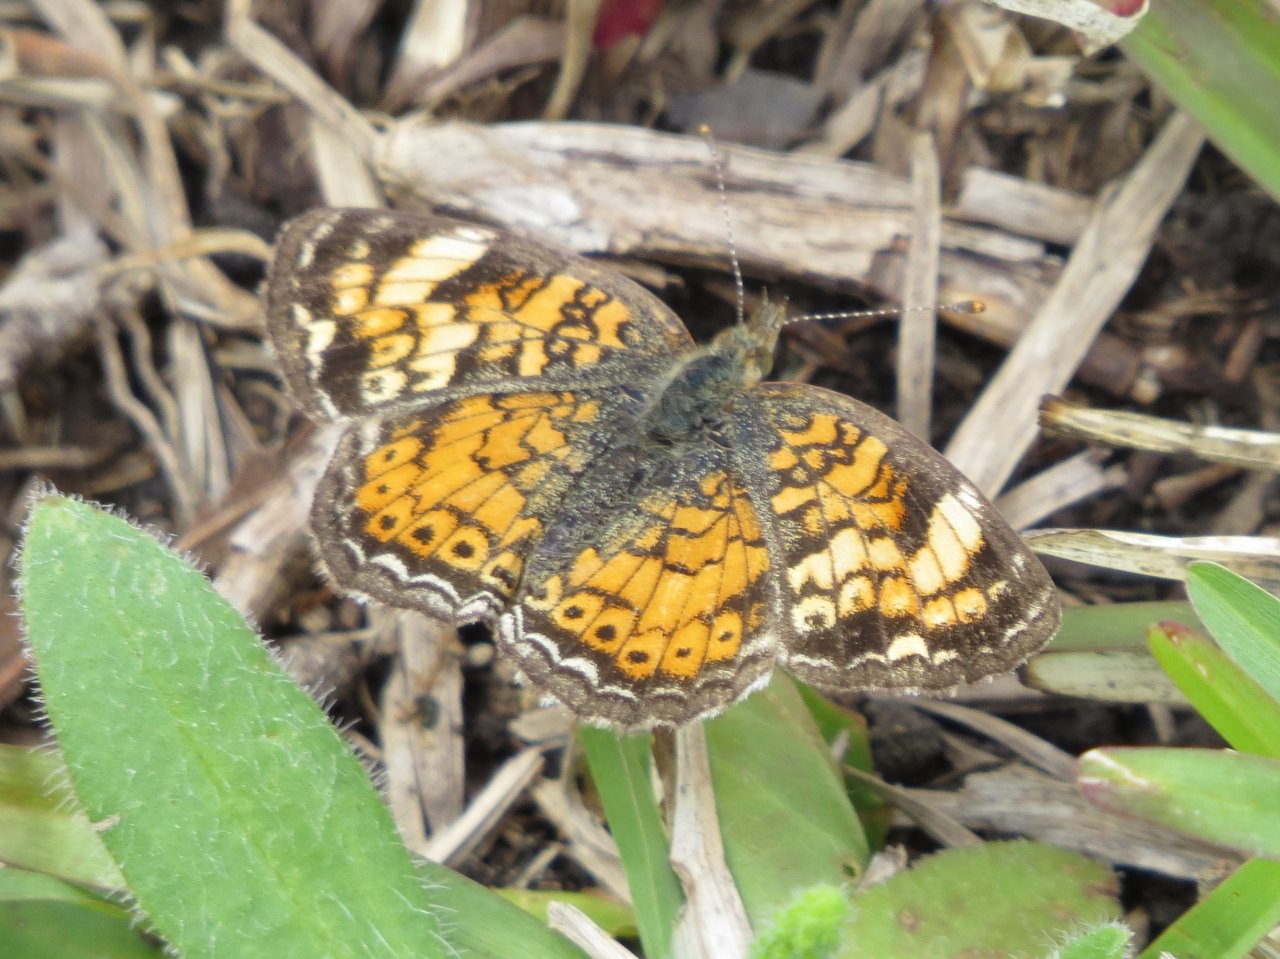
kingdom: Animalia
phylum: Arthropoda
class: Insecta
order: Lepidoptera
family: Nymphalidae
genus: Phyciodes
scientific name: Phyciodes phaon
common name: Phaon Crescent
